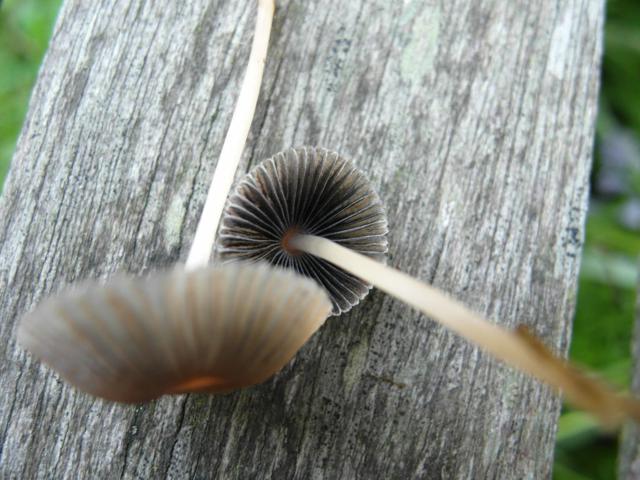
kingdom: Fungi
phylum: Basidiomycota
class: Agaricomycetes
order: Agaricales
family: Psathyrellaceae
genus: Parasola
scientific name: Parasola plicatilis
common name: plæne-hjulhat
